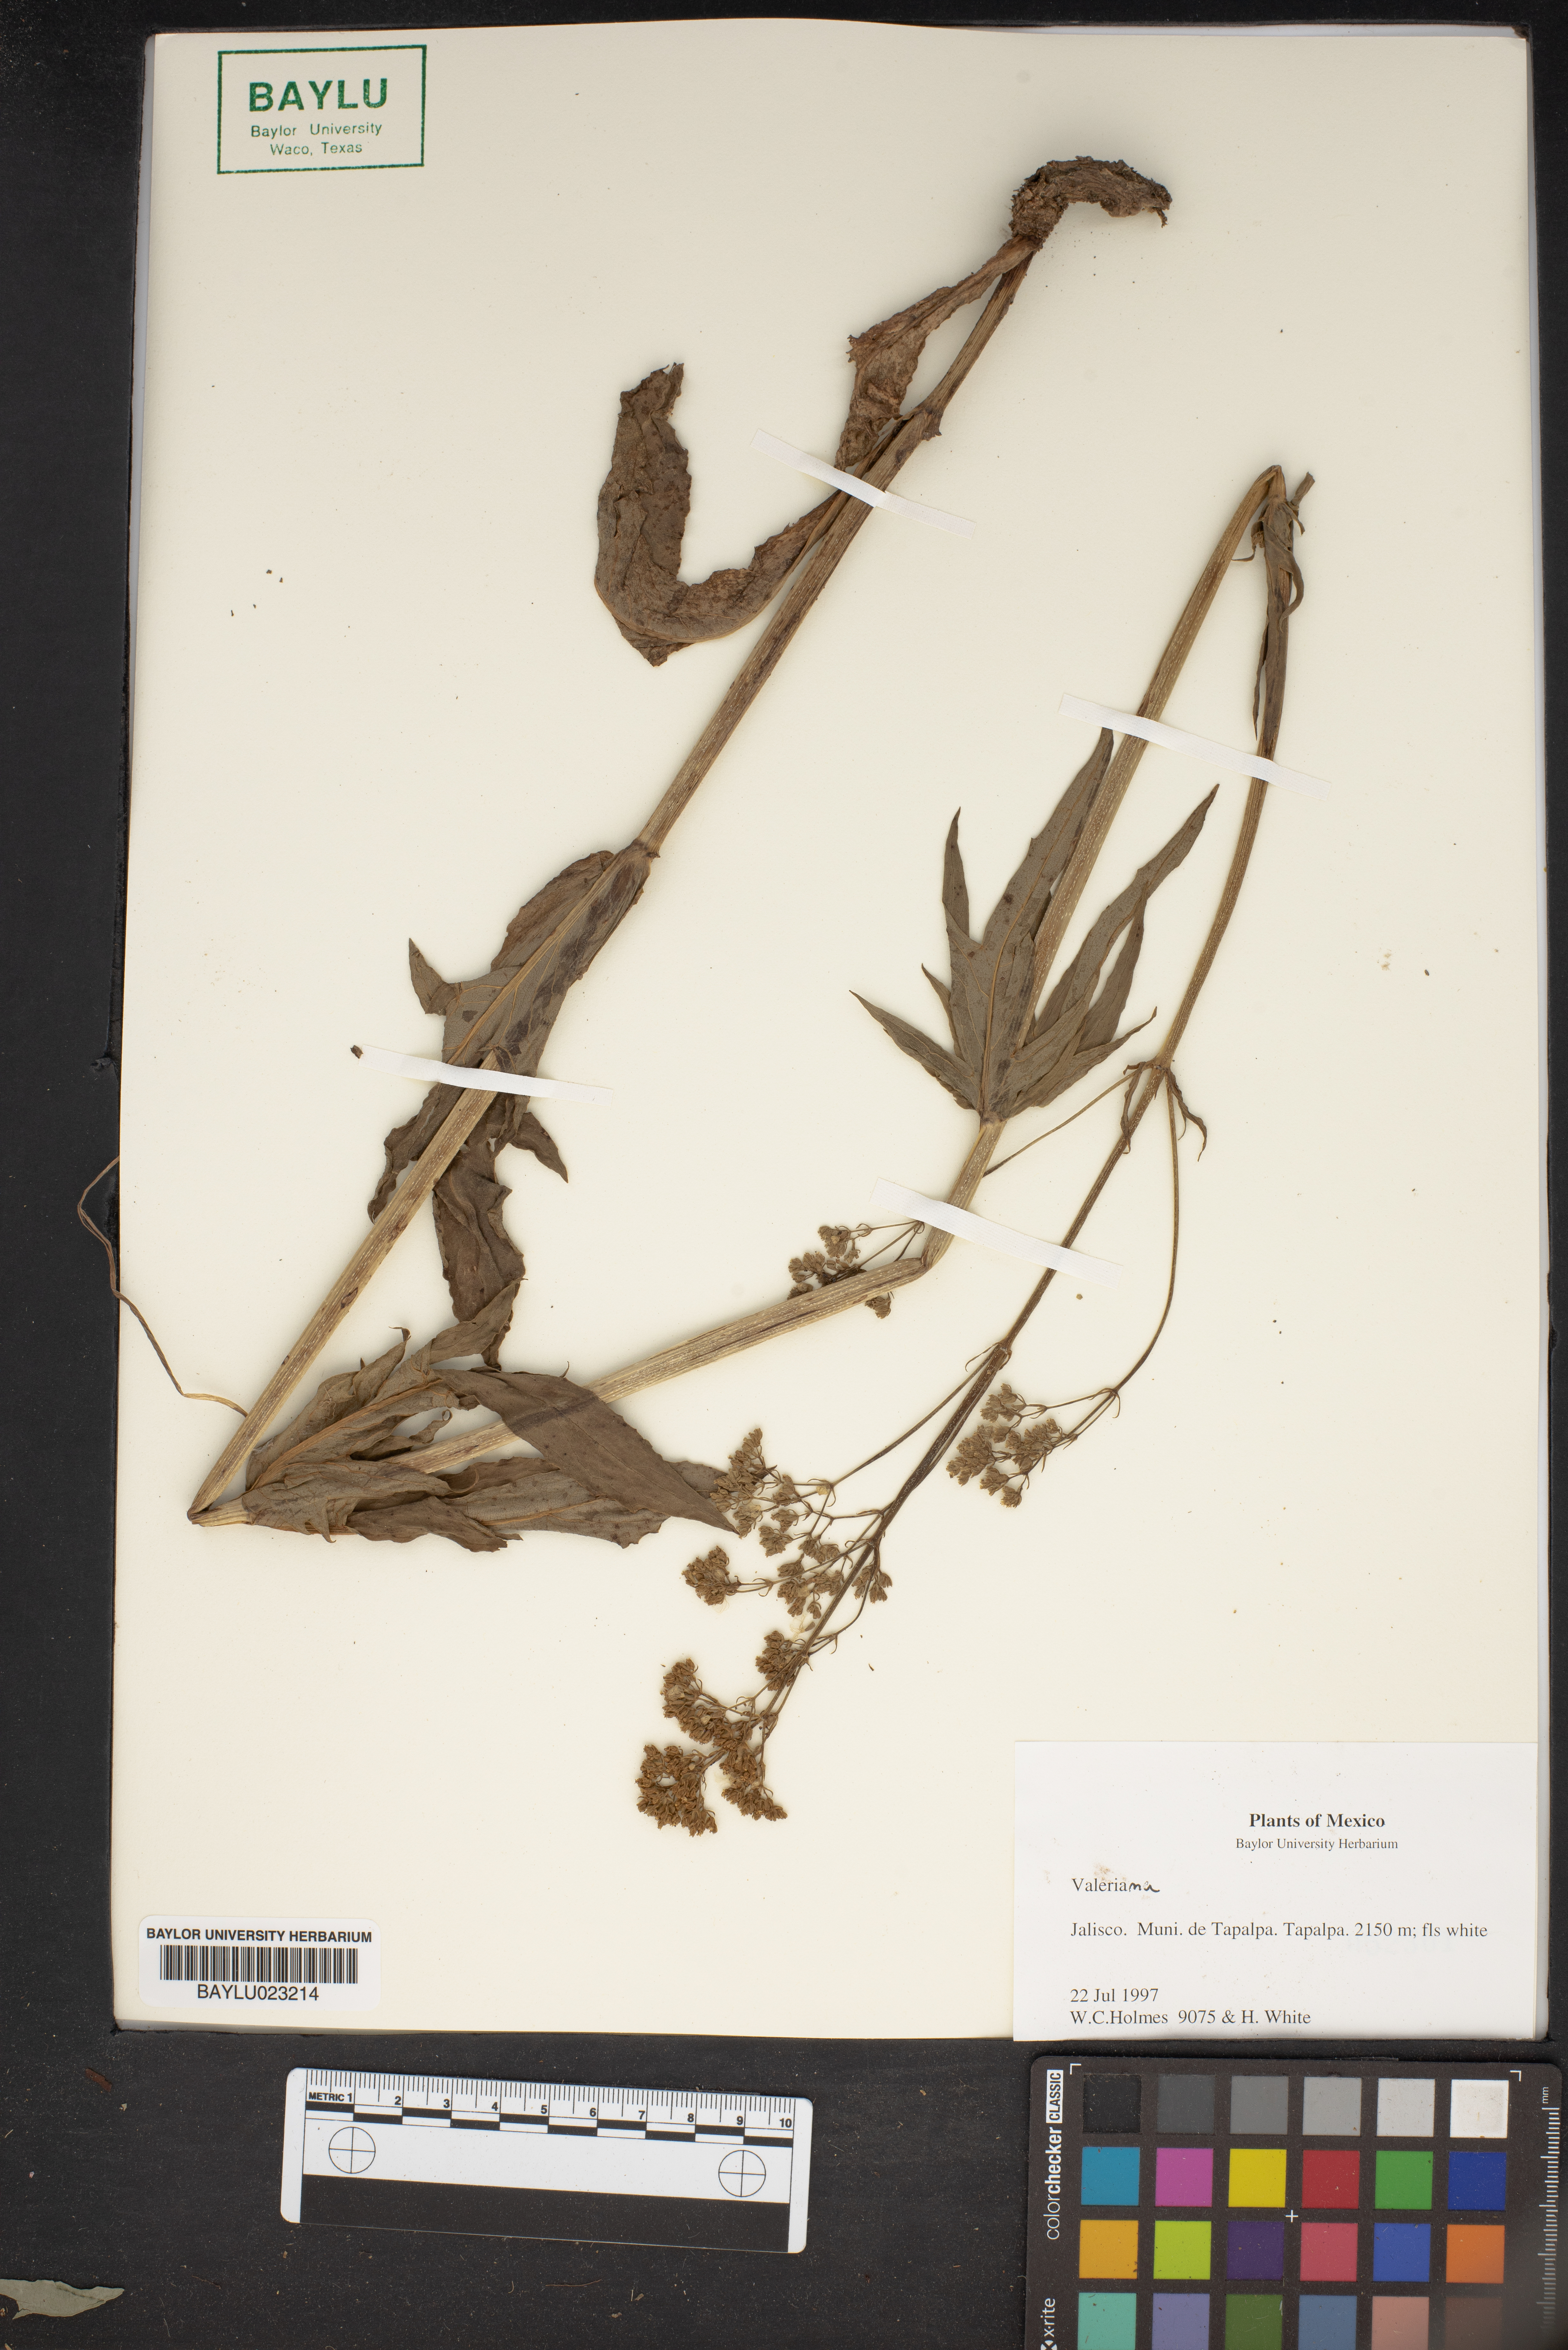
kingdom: Plantae
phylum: Tracheophyta
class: Magnoliopsida
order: Dipsacales
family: Caprifoliaceae
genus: Valeriana
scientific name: Valeriana
